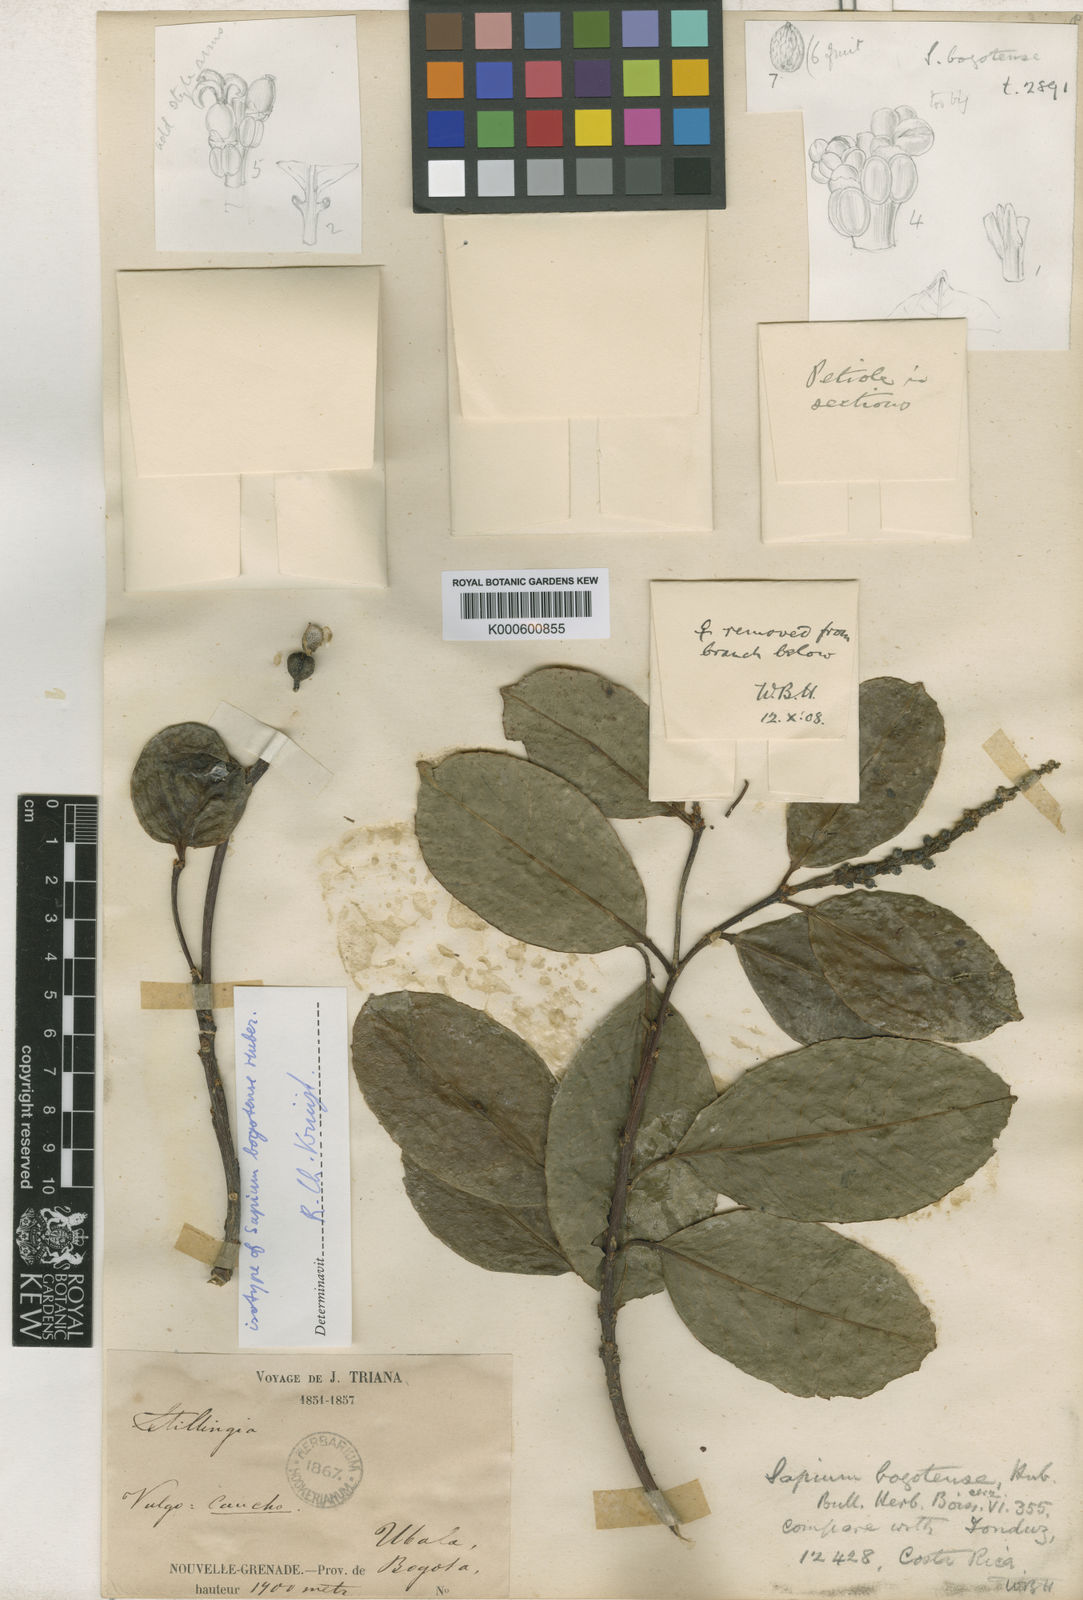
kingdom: Plantae
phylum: Tracheophyta
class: Magnoliopsida
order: Malpighiales
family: Euphorbiaceae
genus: Sapium
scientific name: Sapium glandulosum
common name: Milktree
